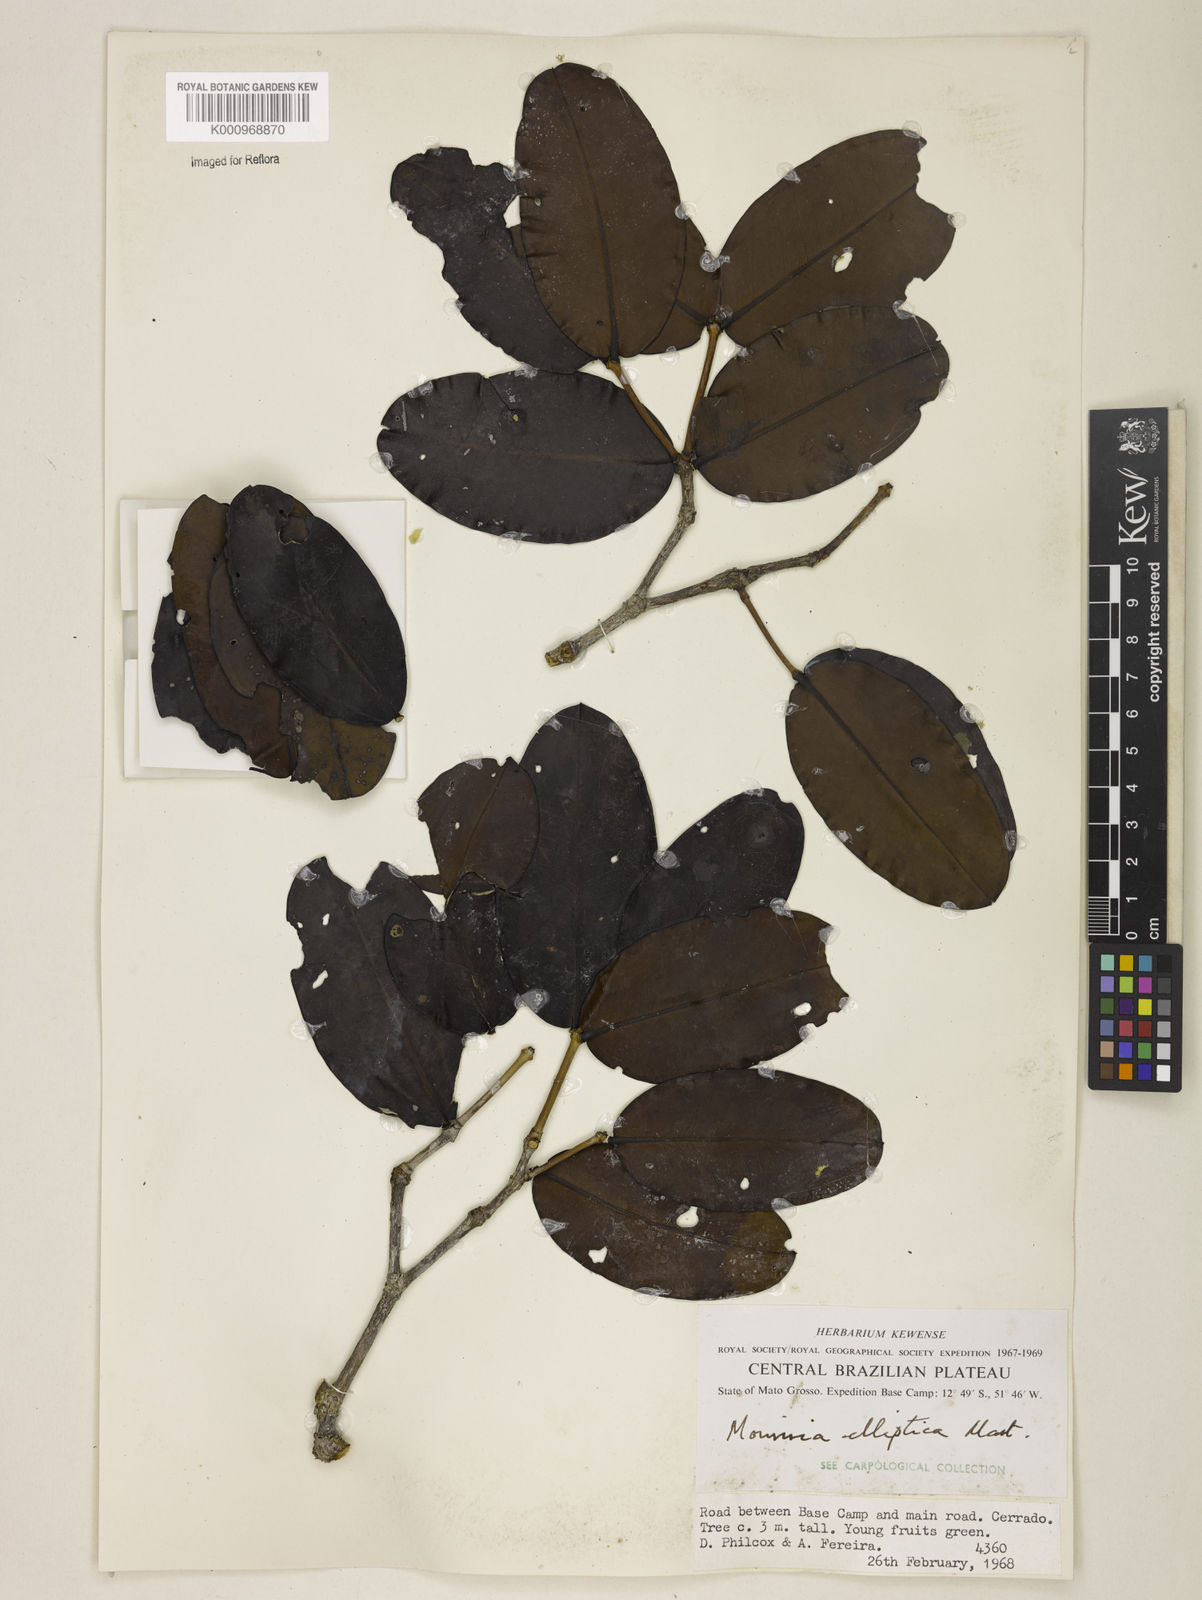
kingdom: Plantae
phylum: Tracheophyta
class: Magnoliopsida
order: Myrtales
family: Melastomataceae
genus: Mouriri
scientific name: Mouriri elliptica
